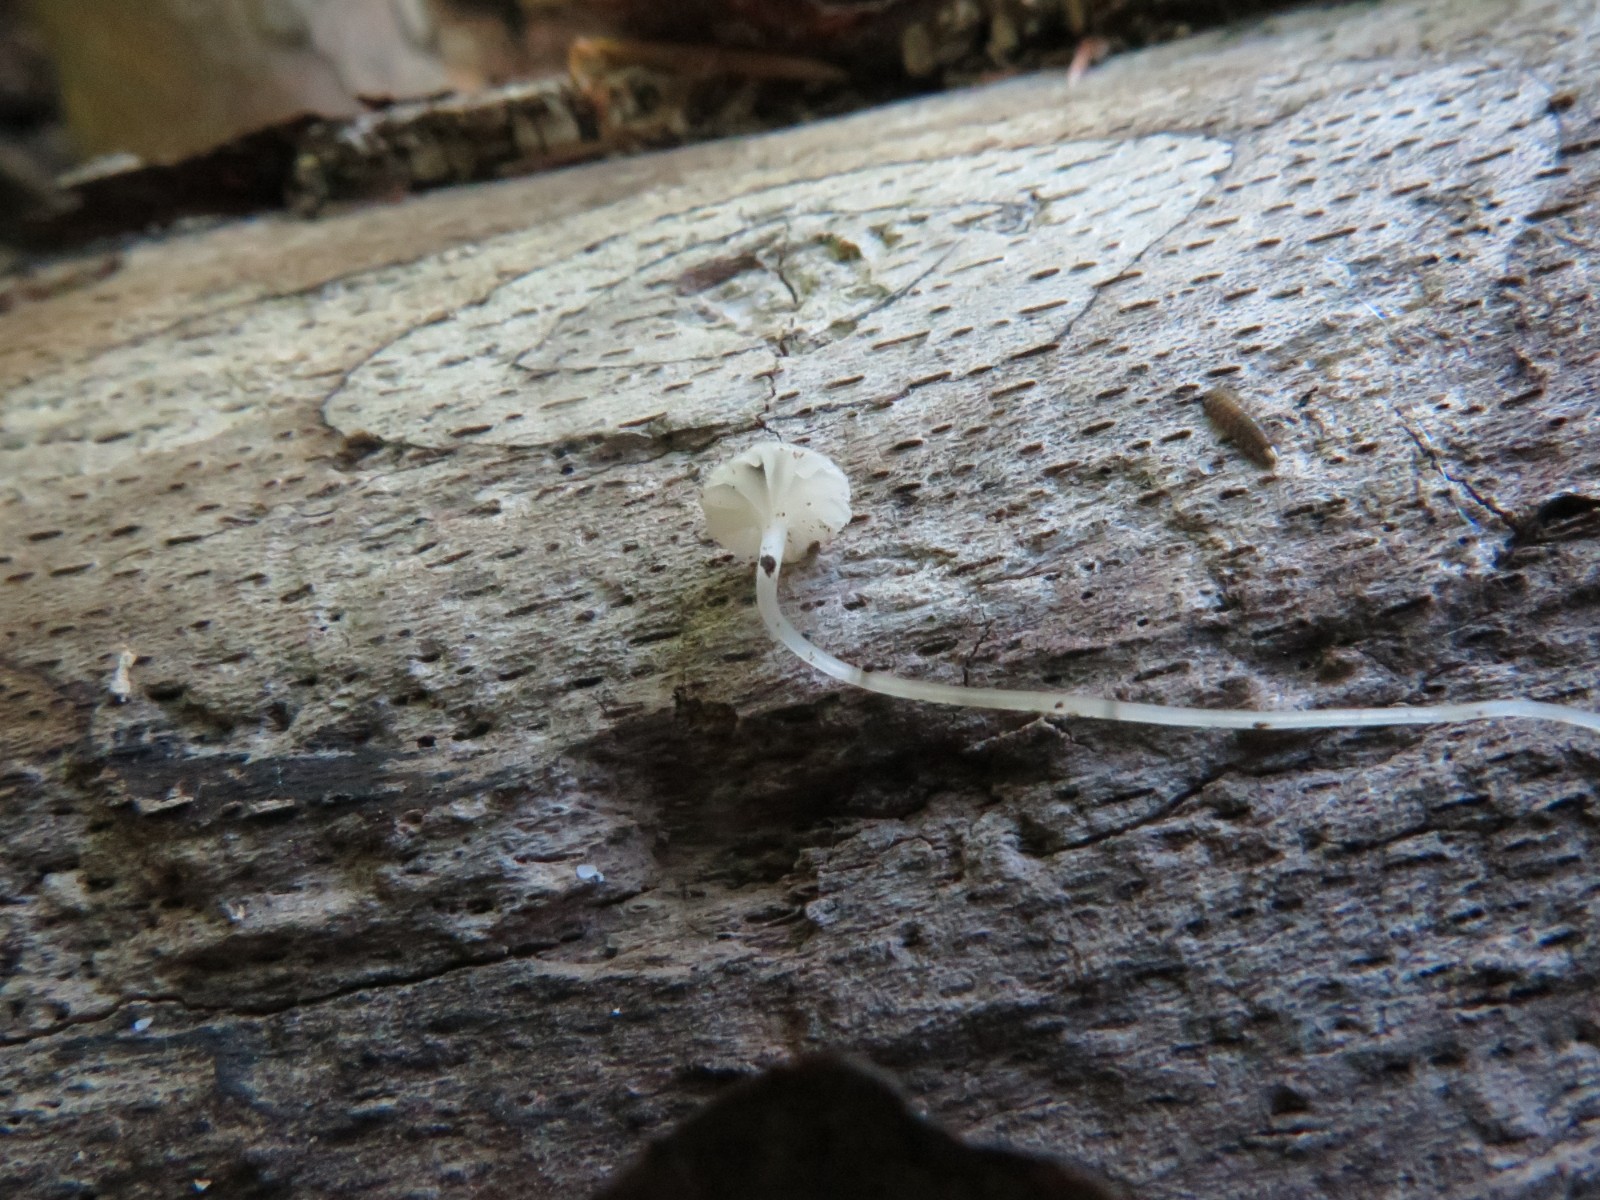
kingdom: Fungi
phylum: Basidiomycota
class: Agaricomycetes
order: Agaricales
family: Porotheleaceae
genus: Phloeomana
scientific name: Phloeomana speirea
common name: kvist-huesvamp
